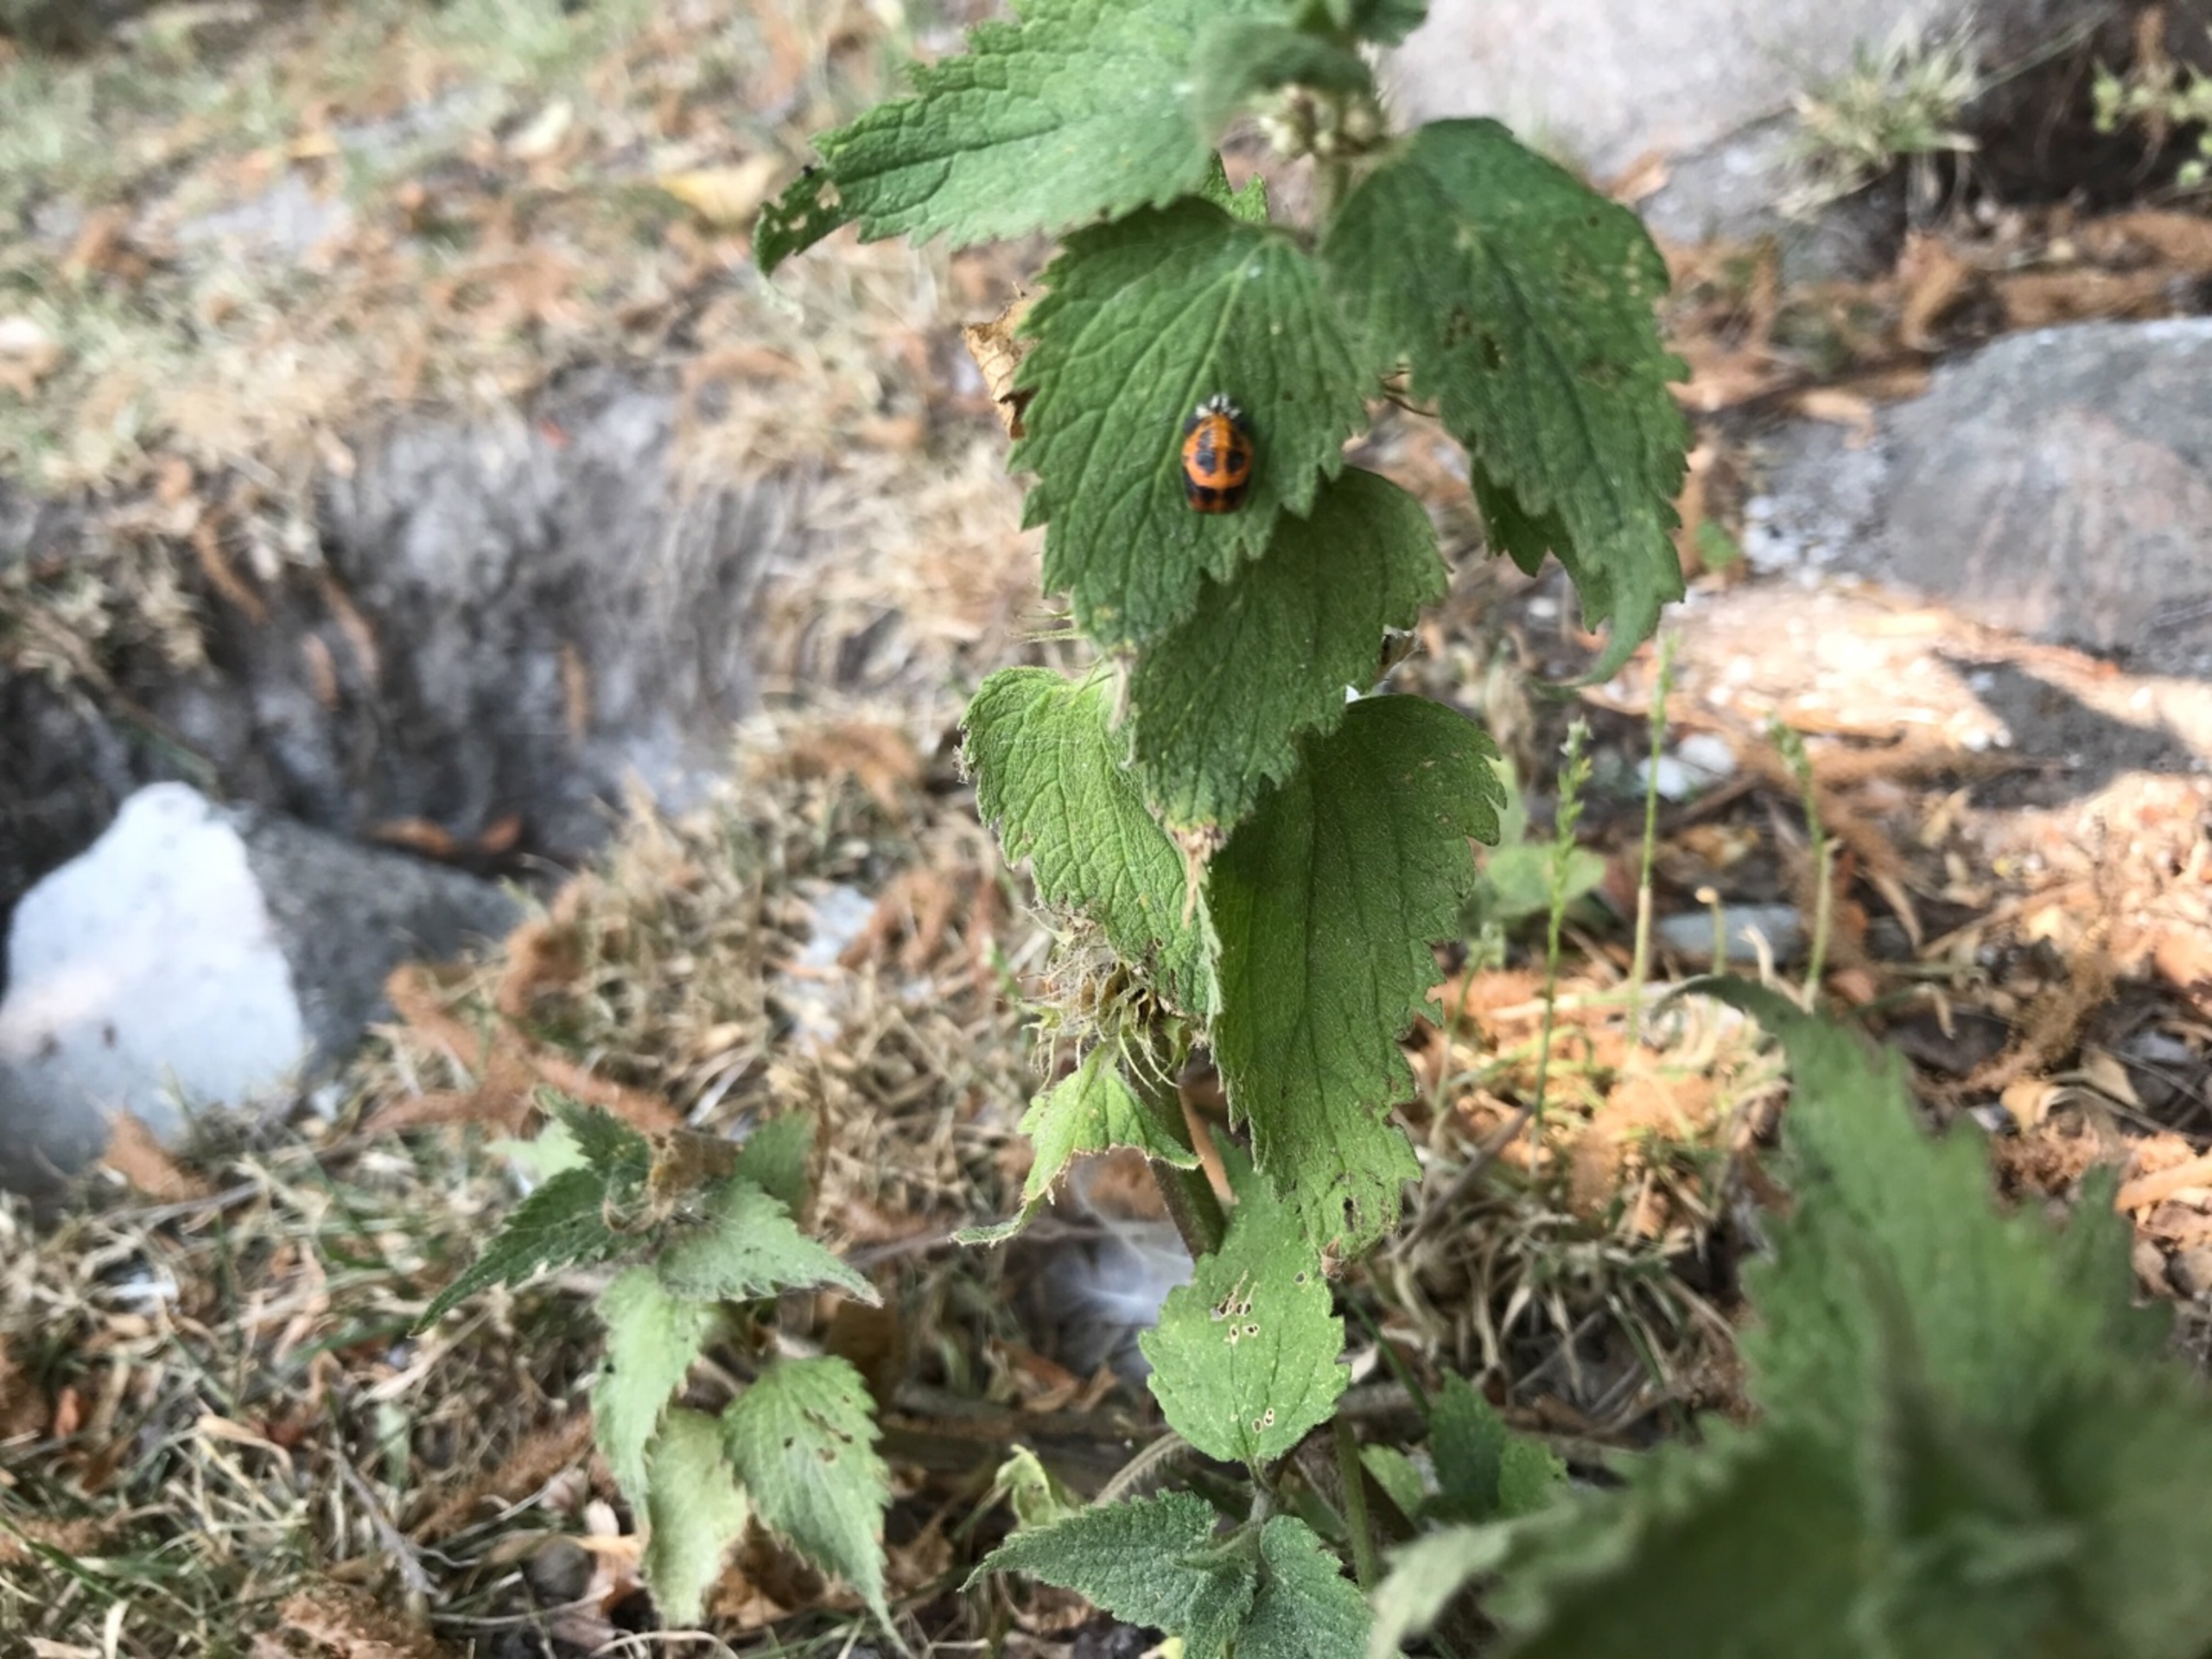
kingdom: Animalia
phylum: Arthropoda
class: Insecta
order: Coleoptera
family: Coccinellidae
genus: Harmonia
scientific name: Harmonia axyridis
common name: Harlekinmariehøne
